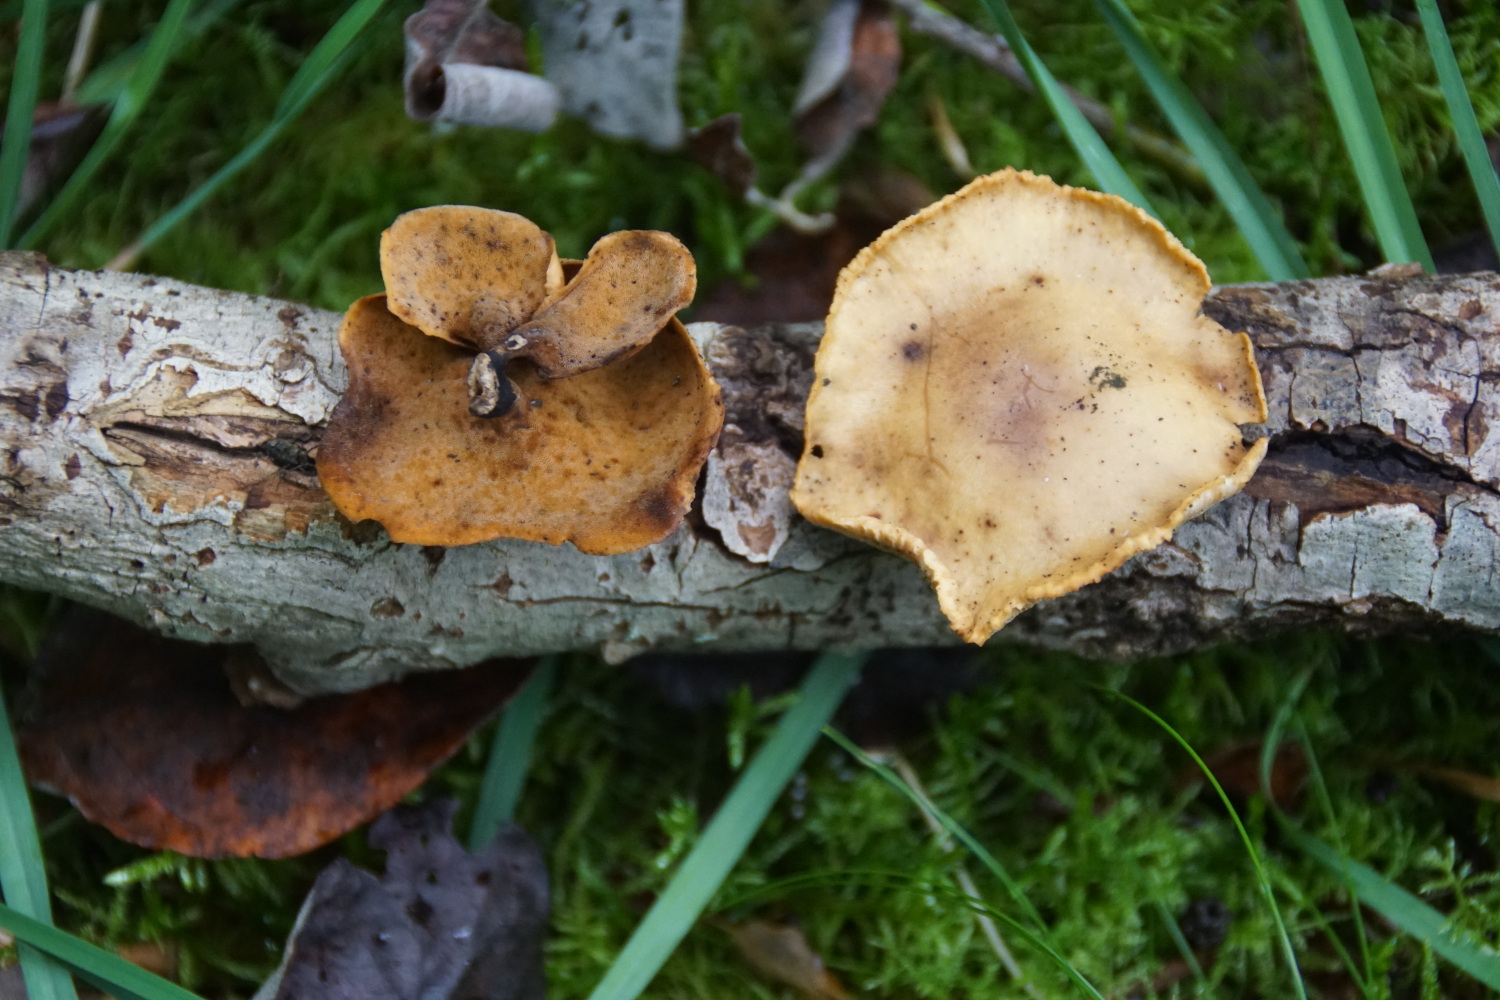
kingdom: Fungi
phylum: Basidiomycota
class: Agaricomycetes
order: Polyporales
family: Polyporaceae
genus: Cerioporus
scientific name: Cerioporus varius
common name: foranderlig stilkporesvamp
